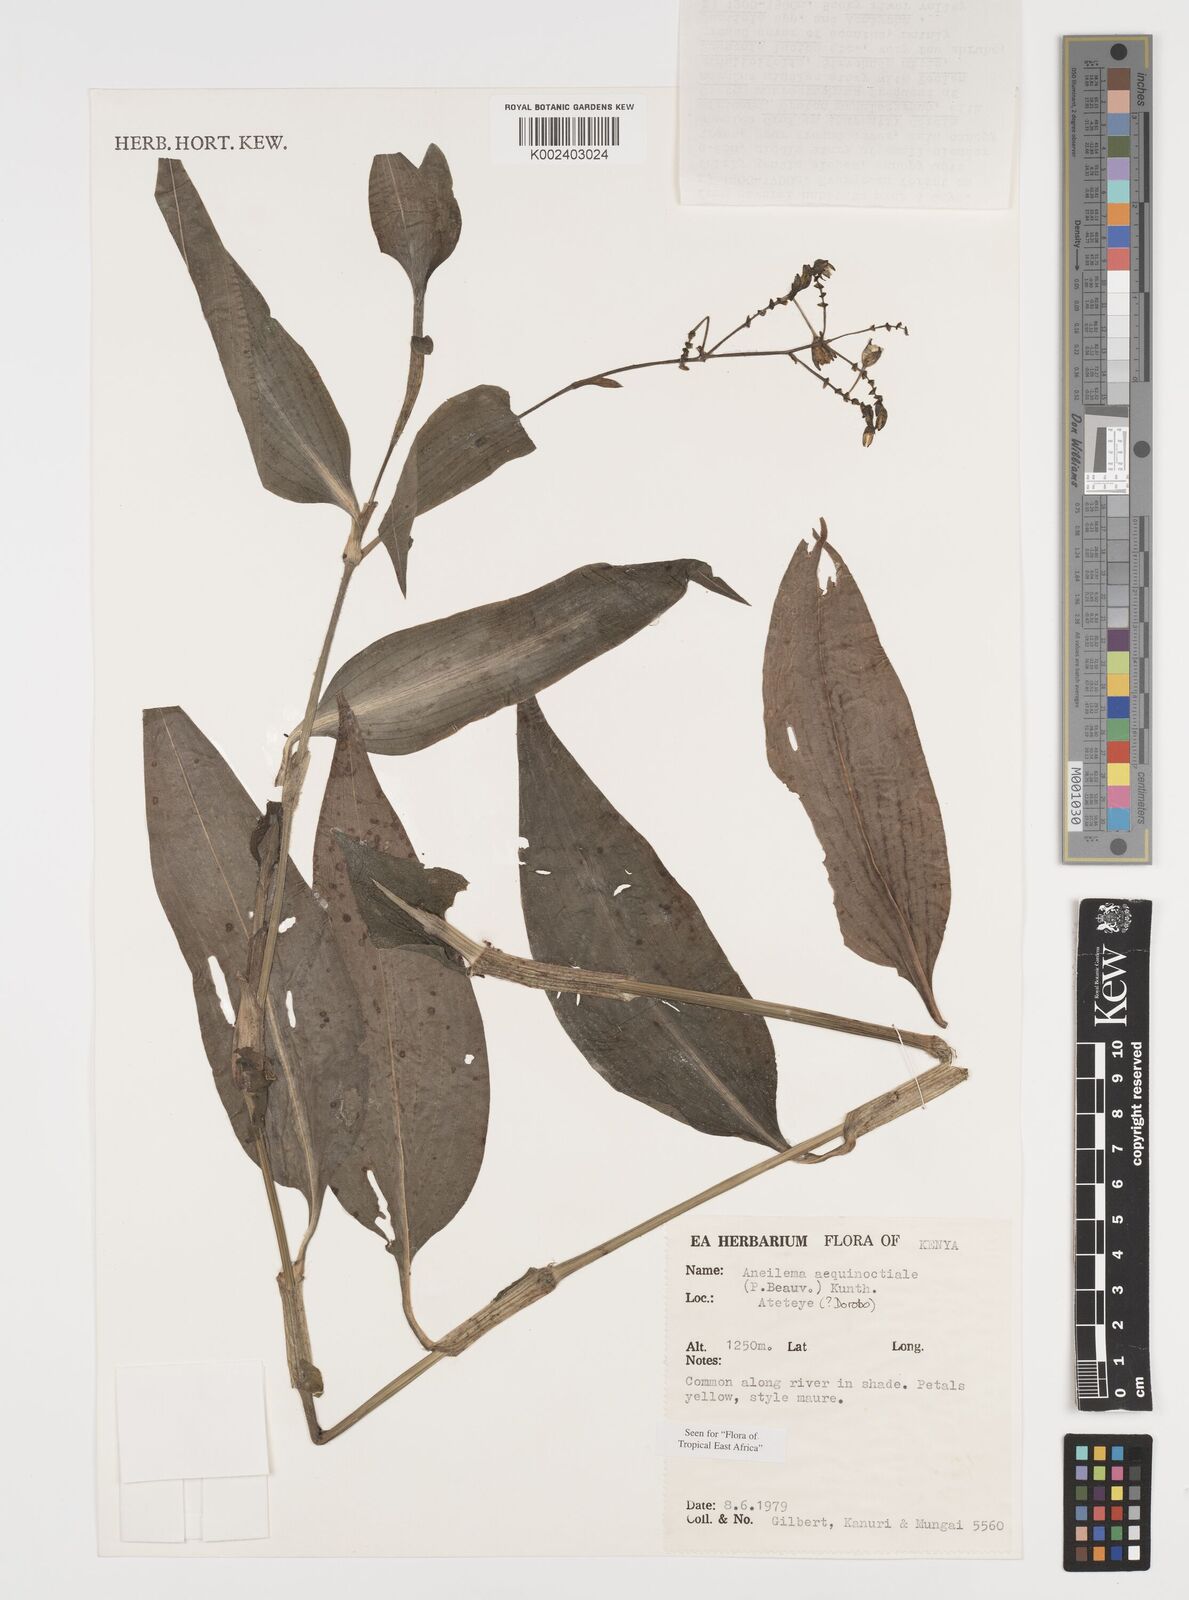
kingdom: Plantae
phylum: Tracheophyta
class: Liliopsida
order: Commelinales
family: Commelinaceae
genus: Aneilema
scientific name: Aneilema aequinoctiale
